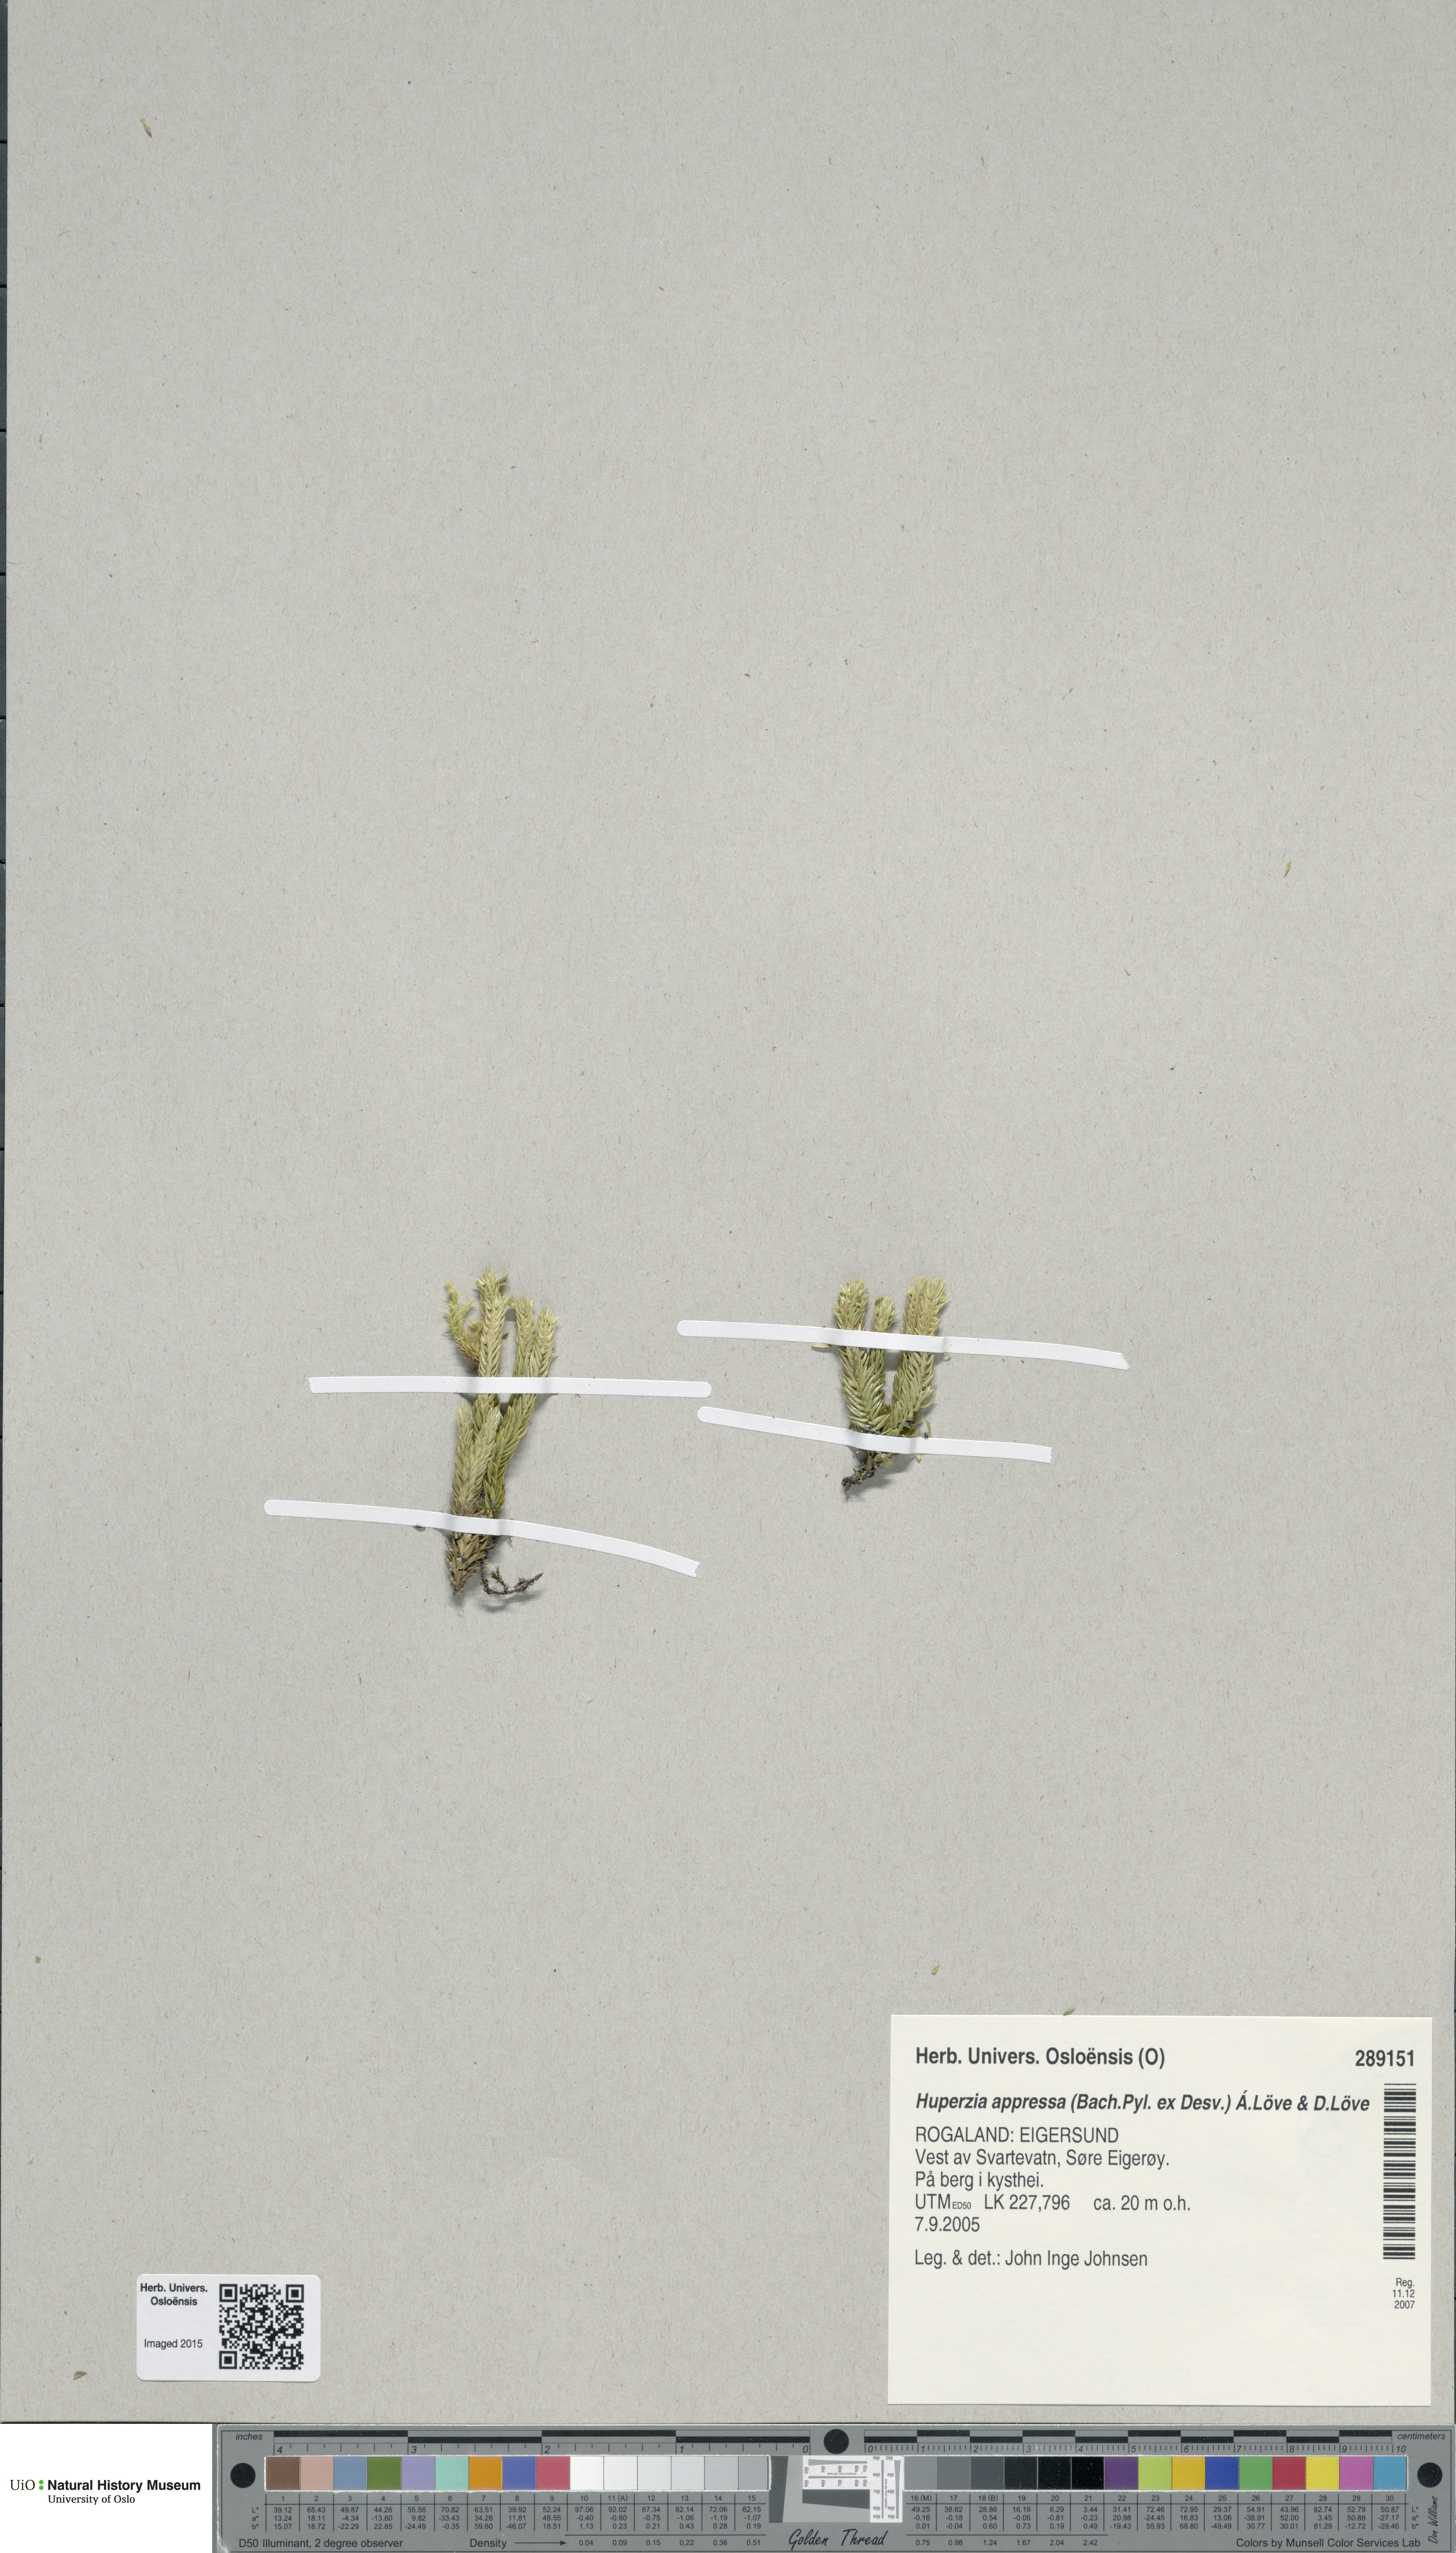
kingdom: Plantae
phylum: Tracheophyta
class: Lycopodiopsida
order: Lycopodiales
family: Lycopodiaceae
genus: Huperzia
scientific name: Huperzia selago
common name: Northern firmoss
